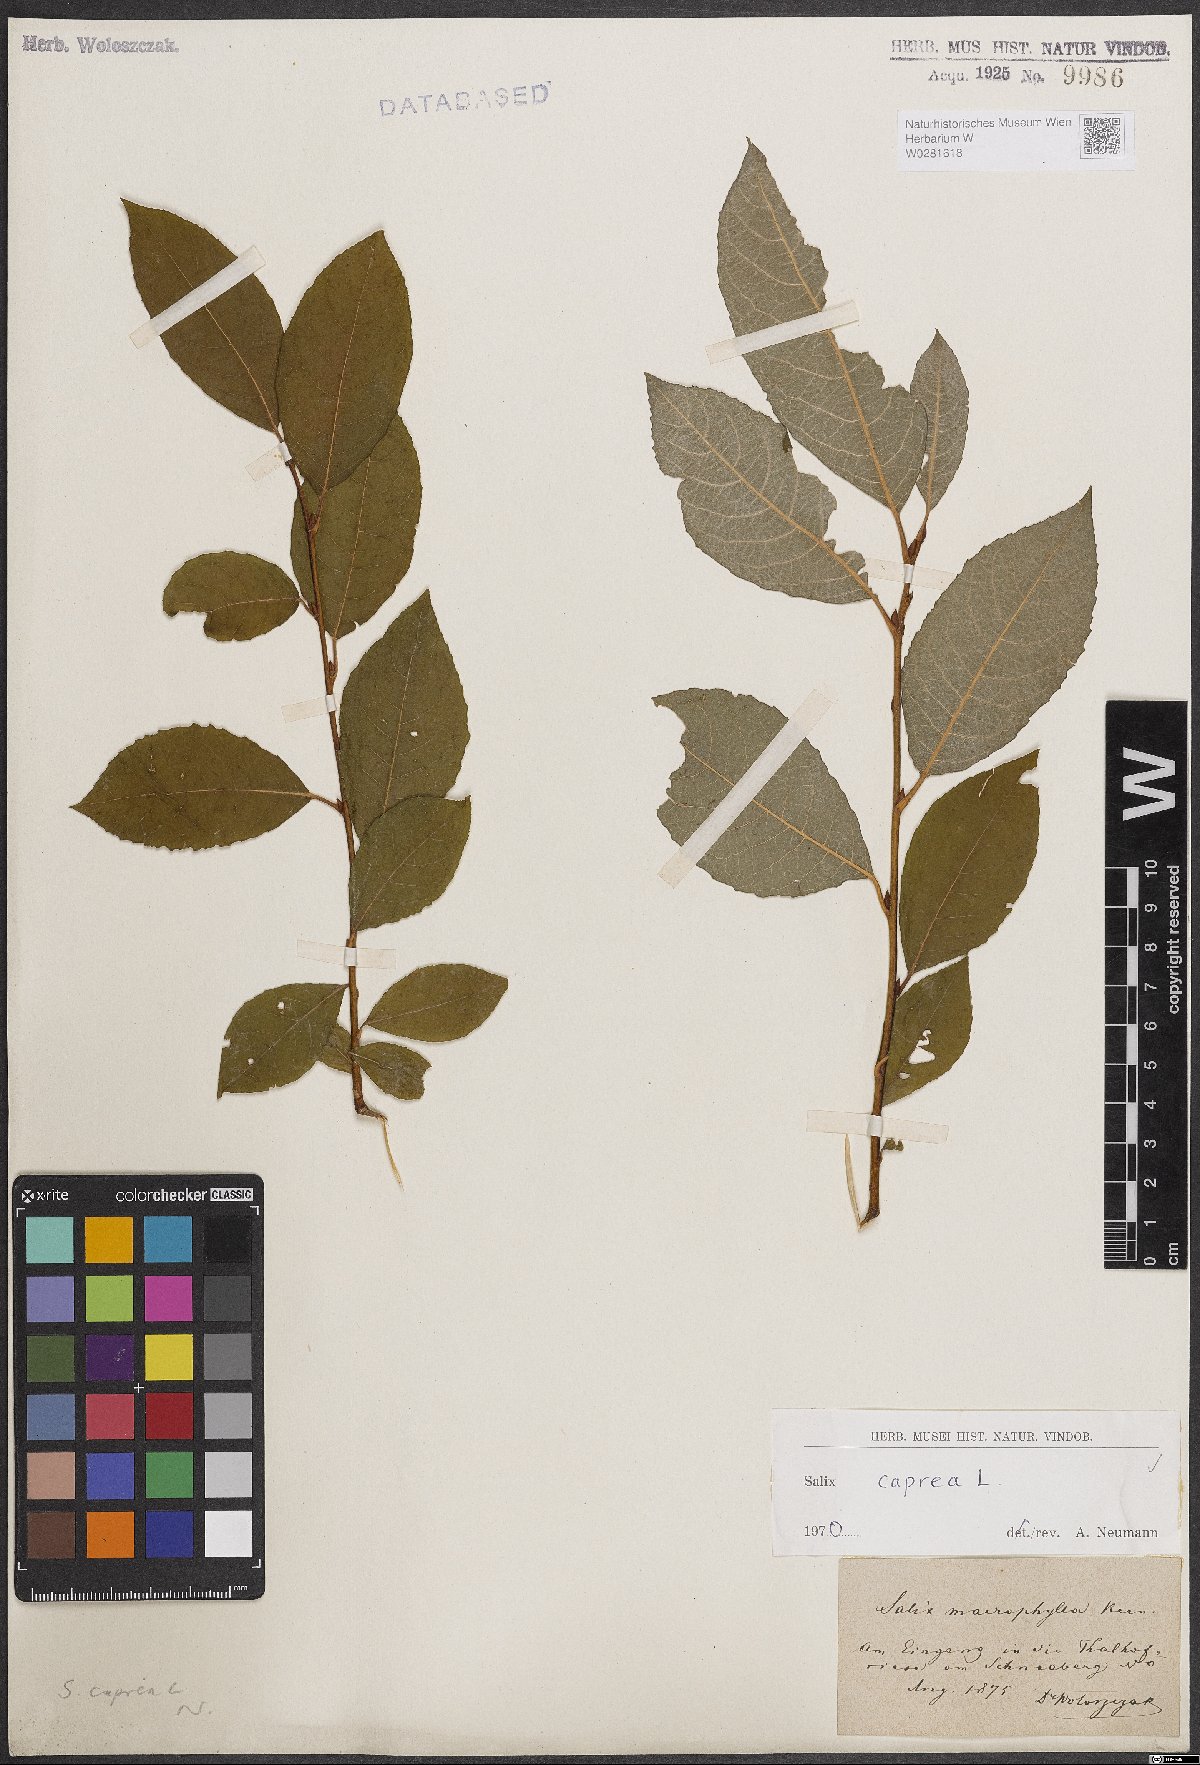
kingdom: Plantae
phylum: Tracheophyta
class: Magnoliopsida
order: Malpighiales
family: Salicaceae
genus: Salix
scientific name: Salix caprea
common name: Goat willow
